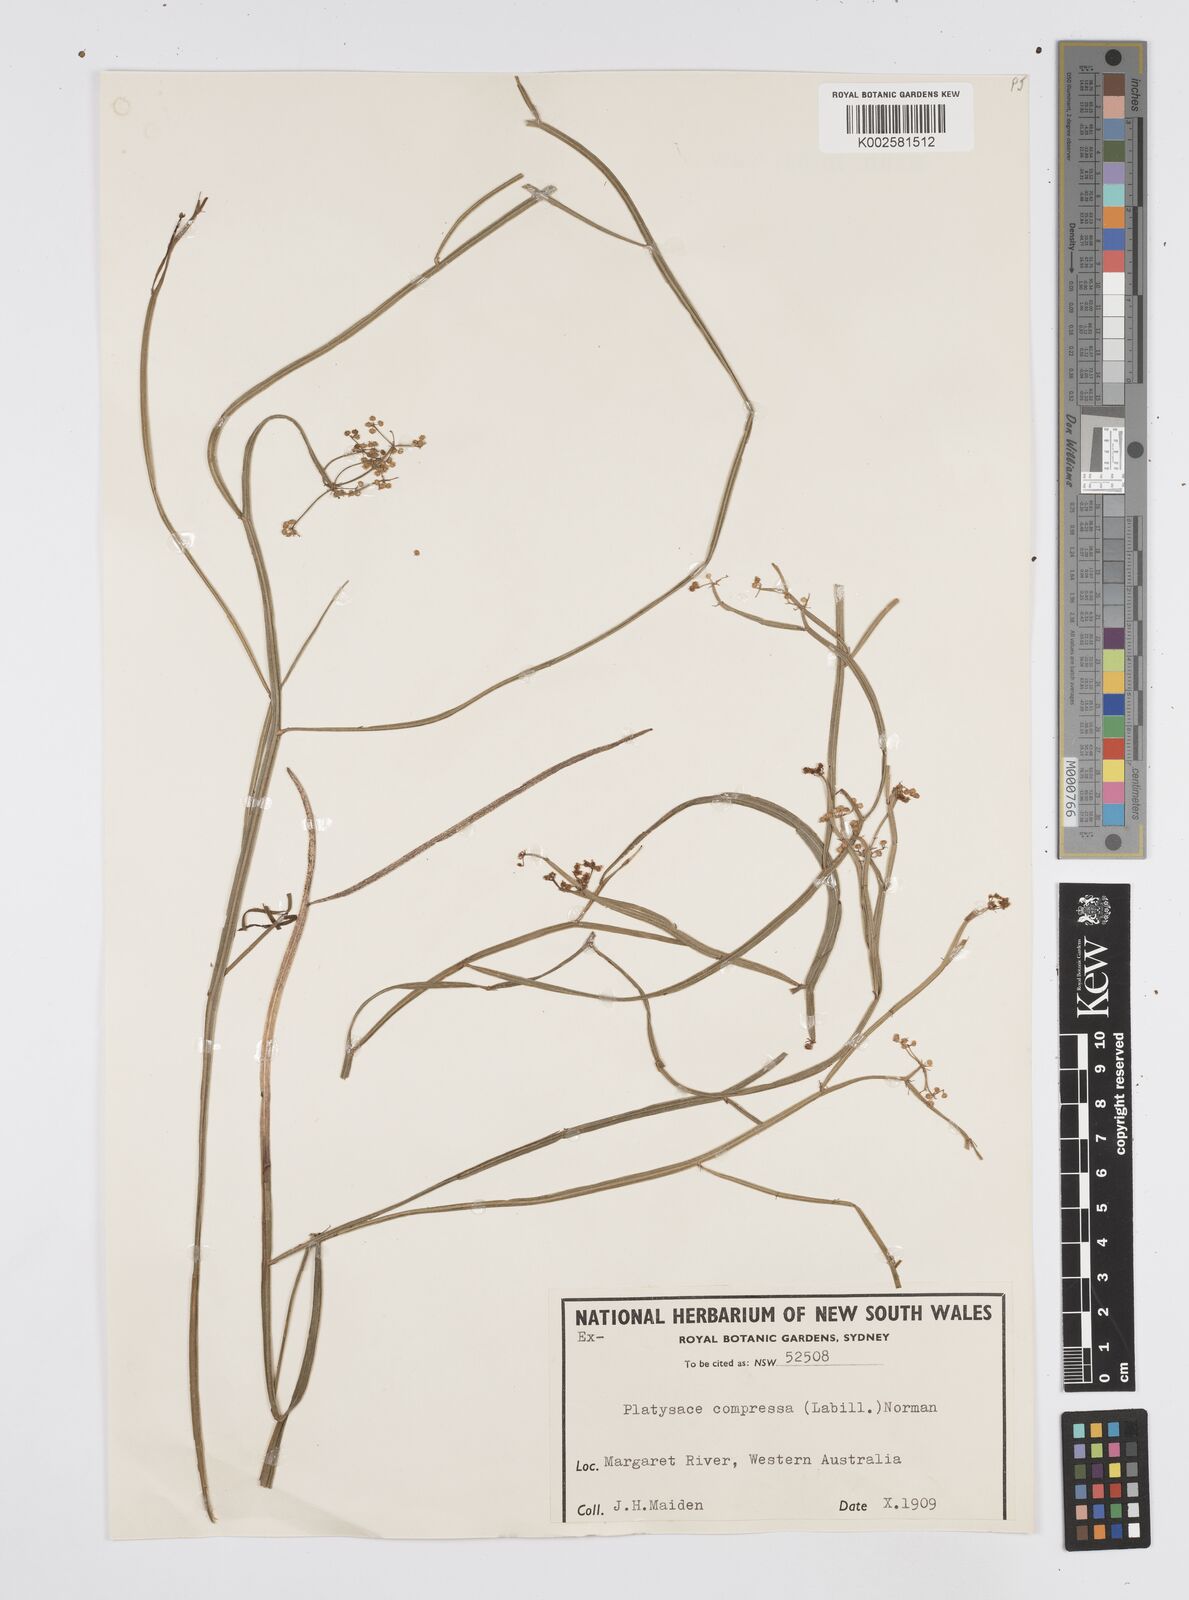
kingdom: Plantae
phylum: Tracheophyta
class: Magnoliopsida
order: Apiales
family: Apiaceae
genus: Centella
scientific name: Centella
